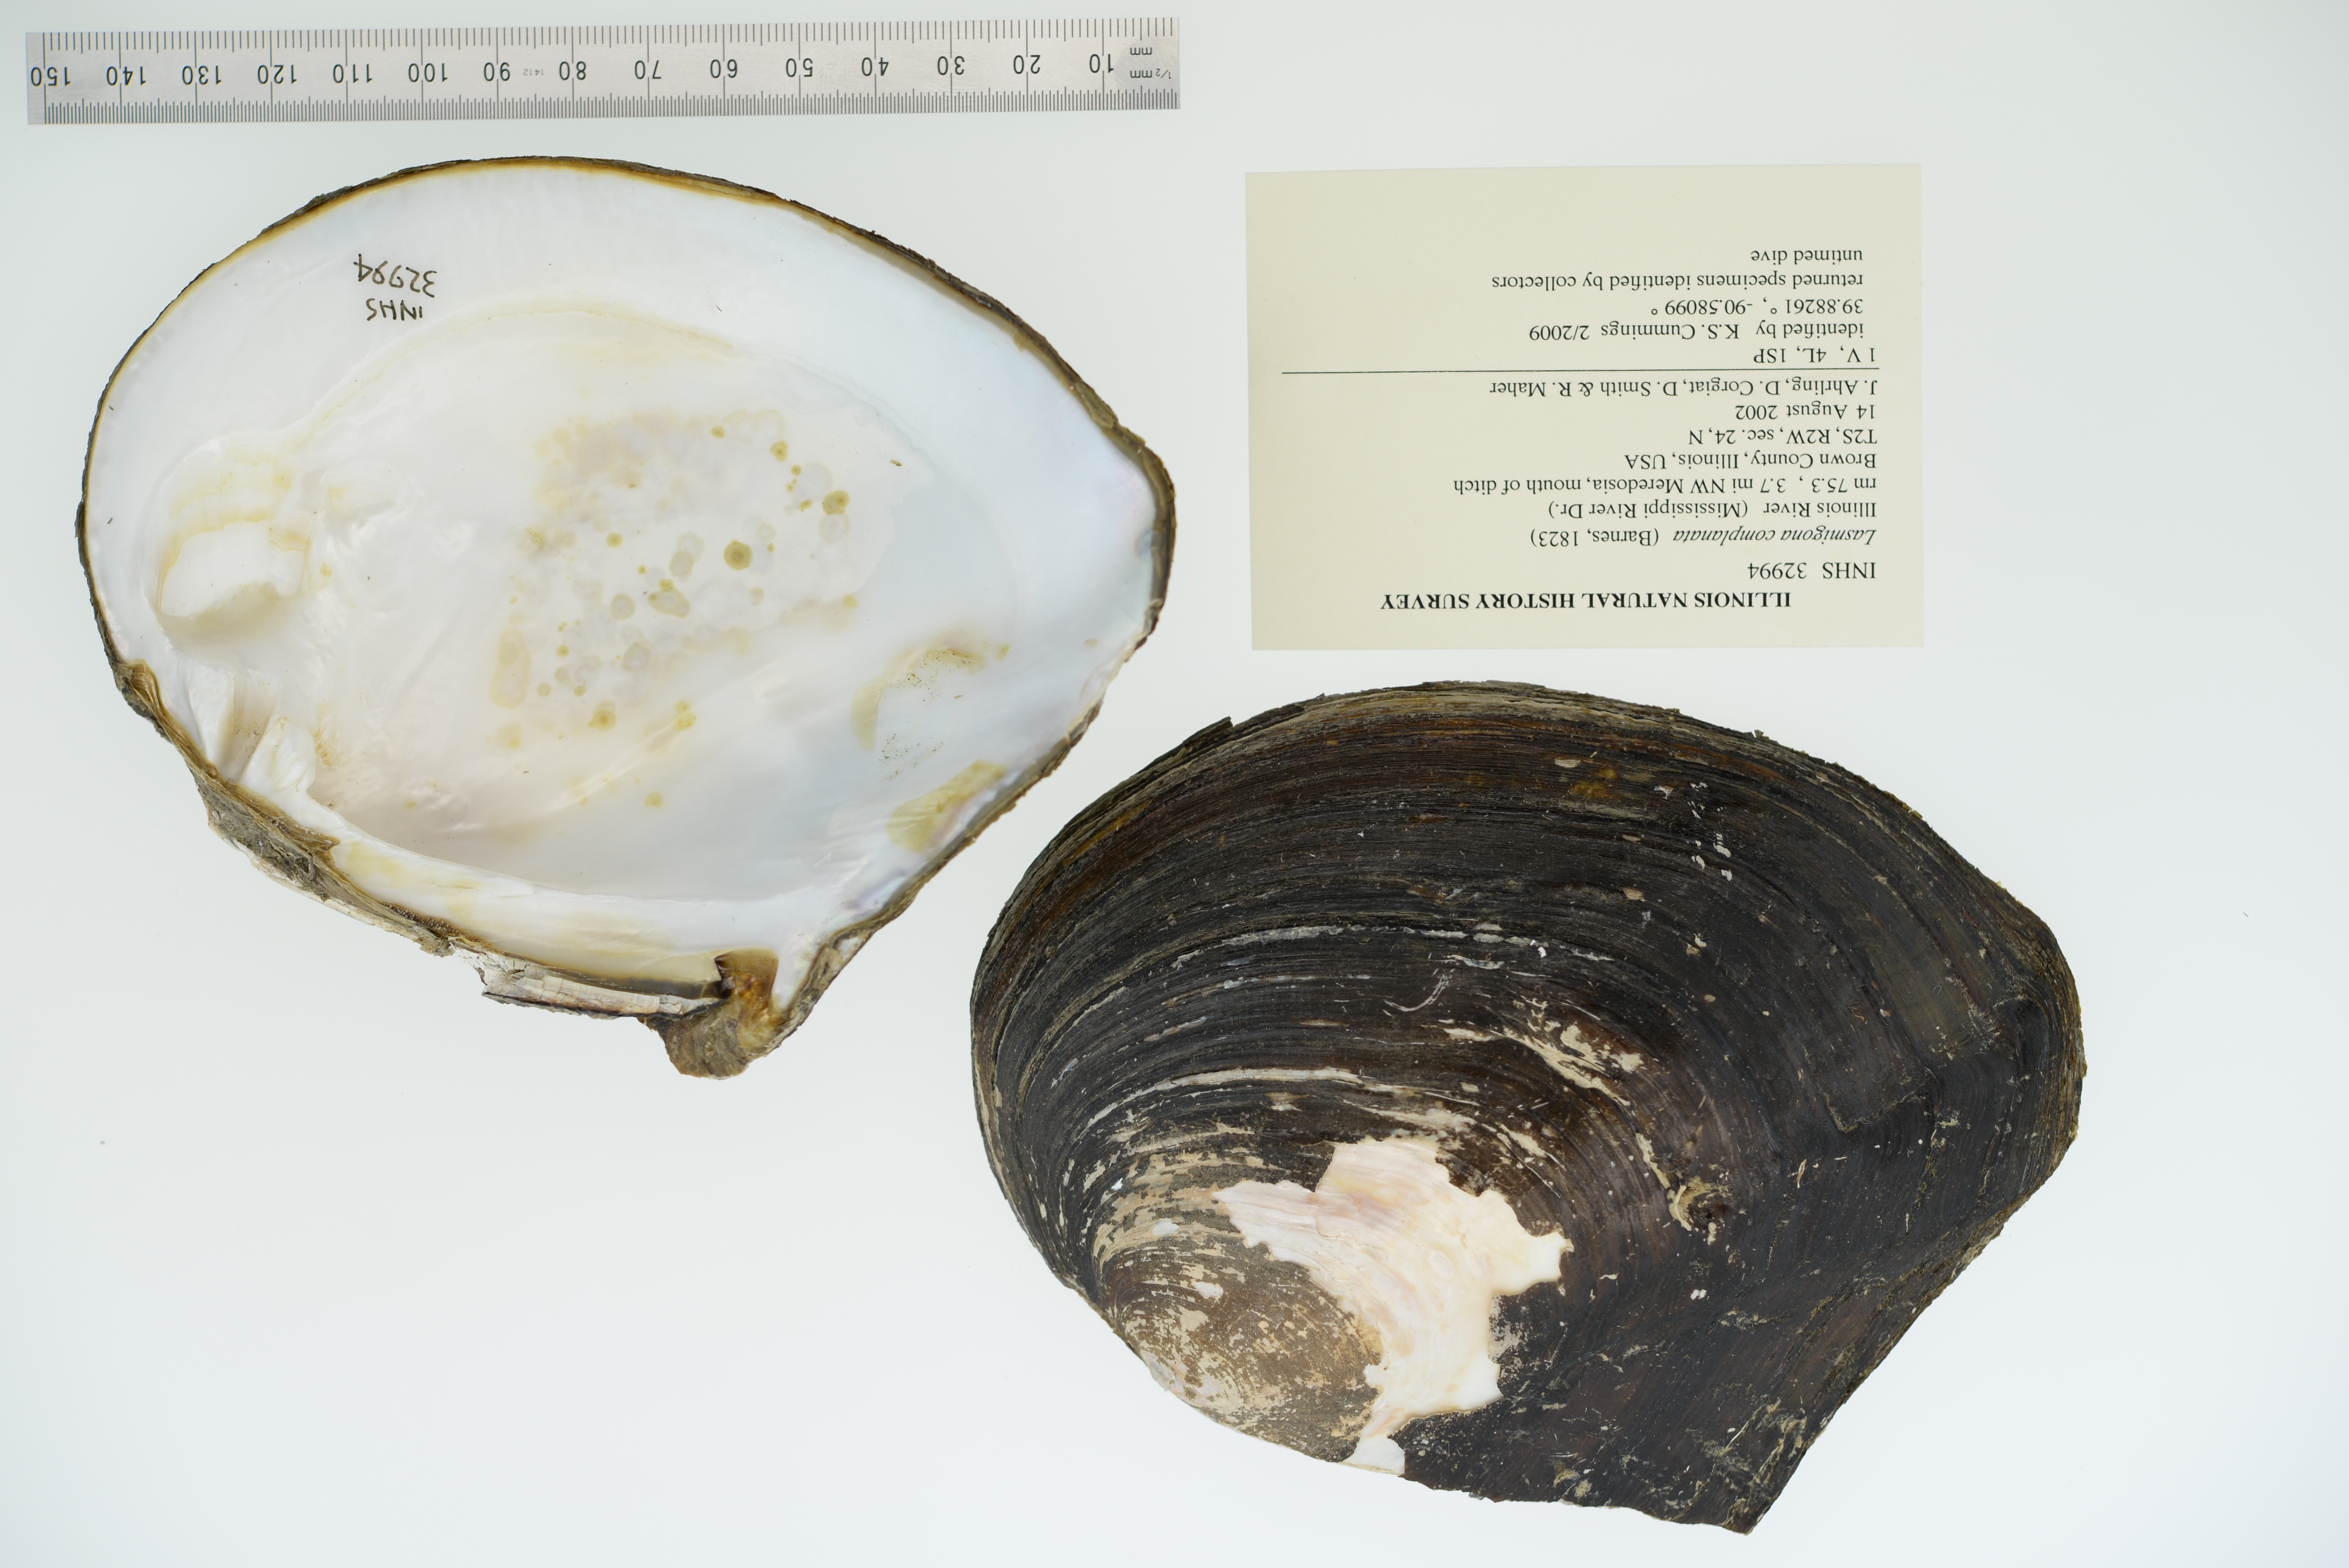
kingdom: Animalia
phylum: Mollusca
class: Bivalvia
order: Unionida
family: Unionidae
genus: Lasmigona
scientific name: Lasmigona complanata
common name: White heelsplitter
